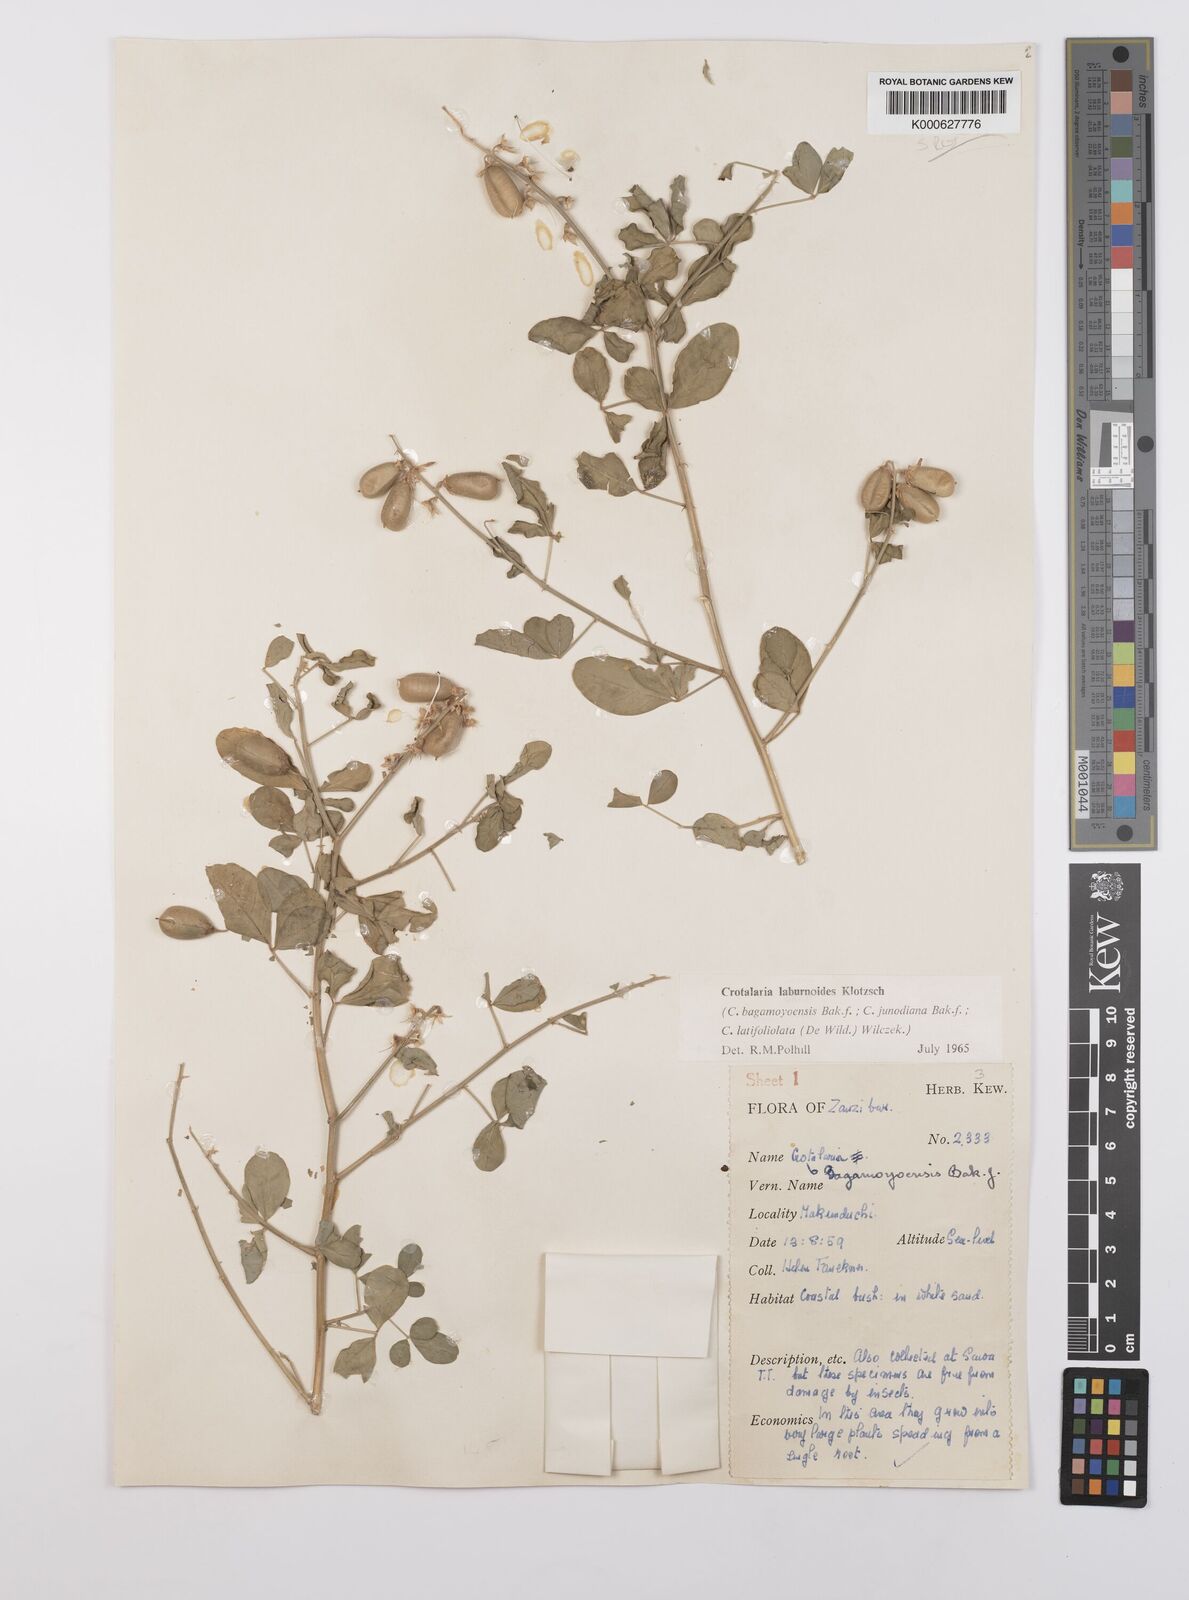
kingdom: Plantae
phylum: Tracheophyta
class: Magnoliopsida
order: Fabales
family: Fabaceae
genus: Crotalaria
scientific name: Crotalaria laburnoides
